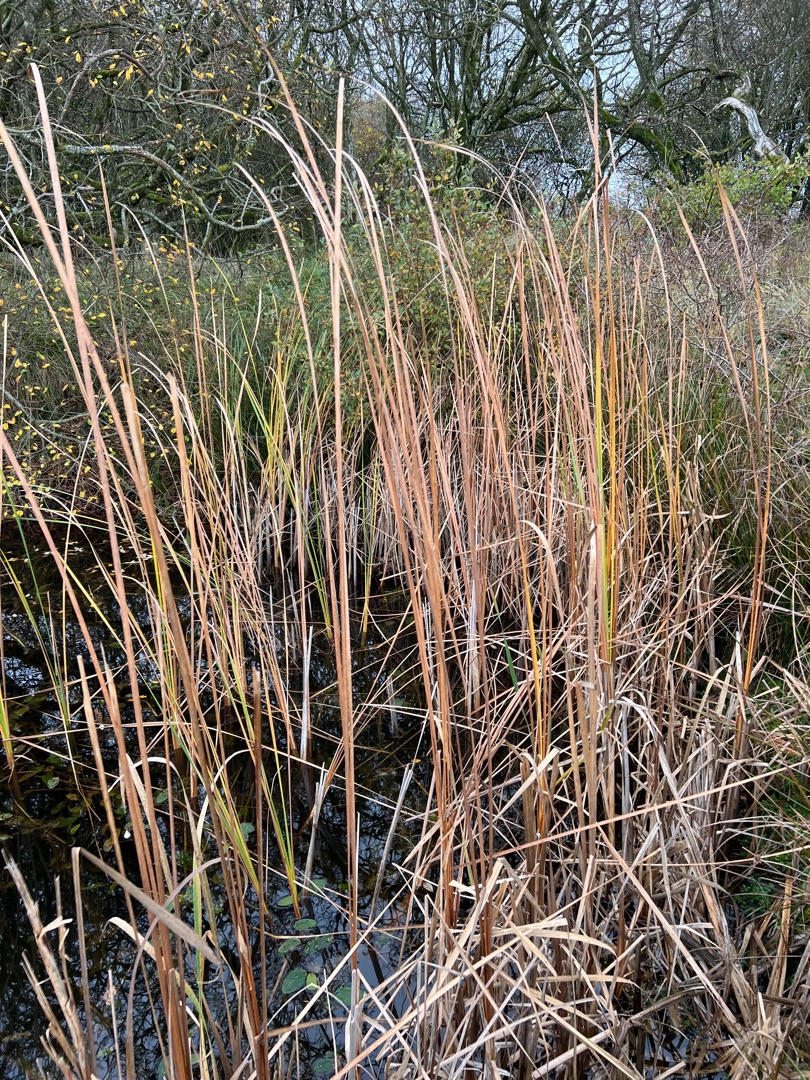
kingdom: Plantae
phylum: Tracheophyta
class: Liliopsida
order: Poales
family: Typhaceae
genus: Typha
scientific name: Typha angustifolia
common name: Smalbladet dunhammer
